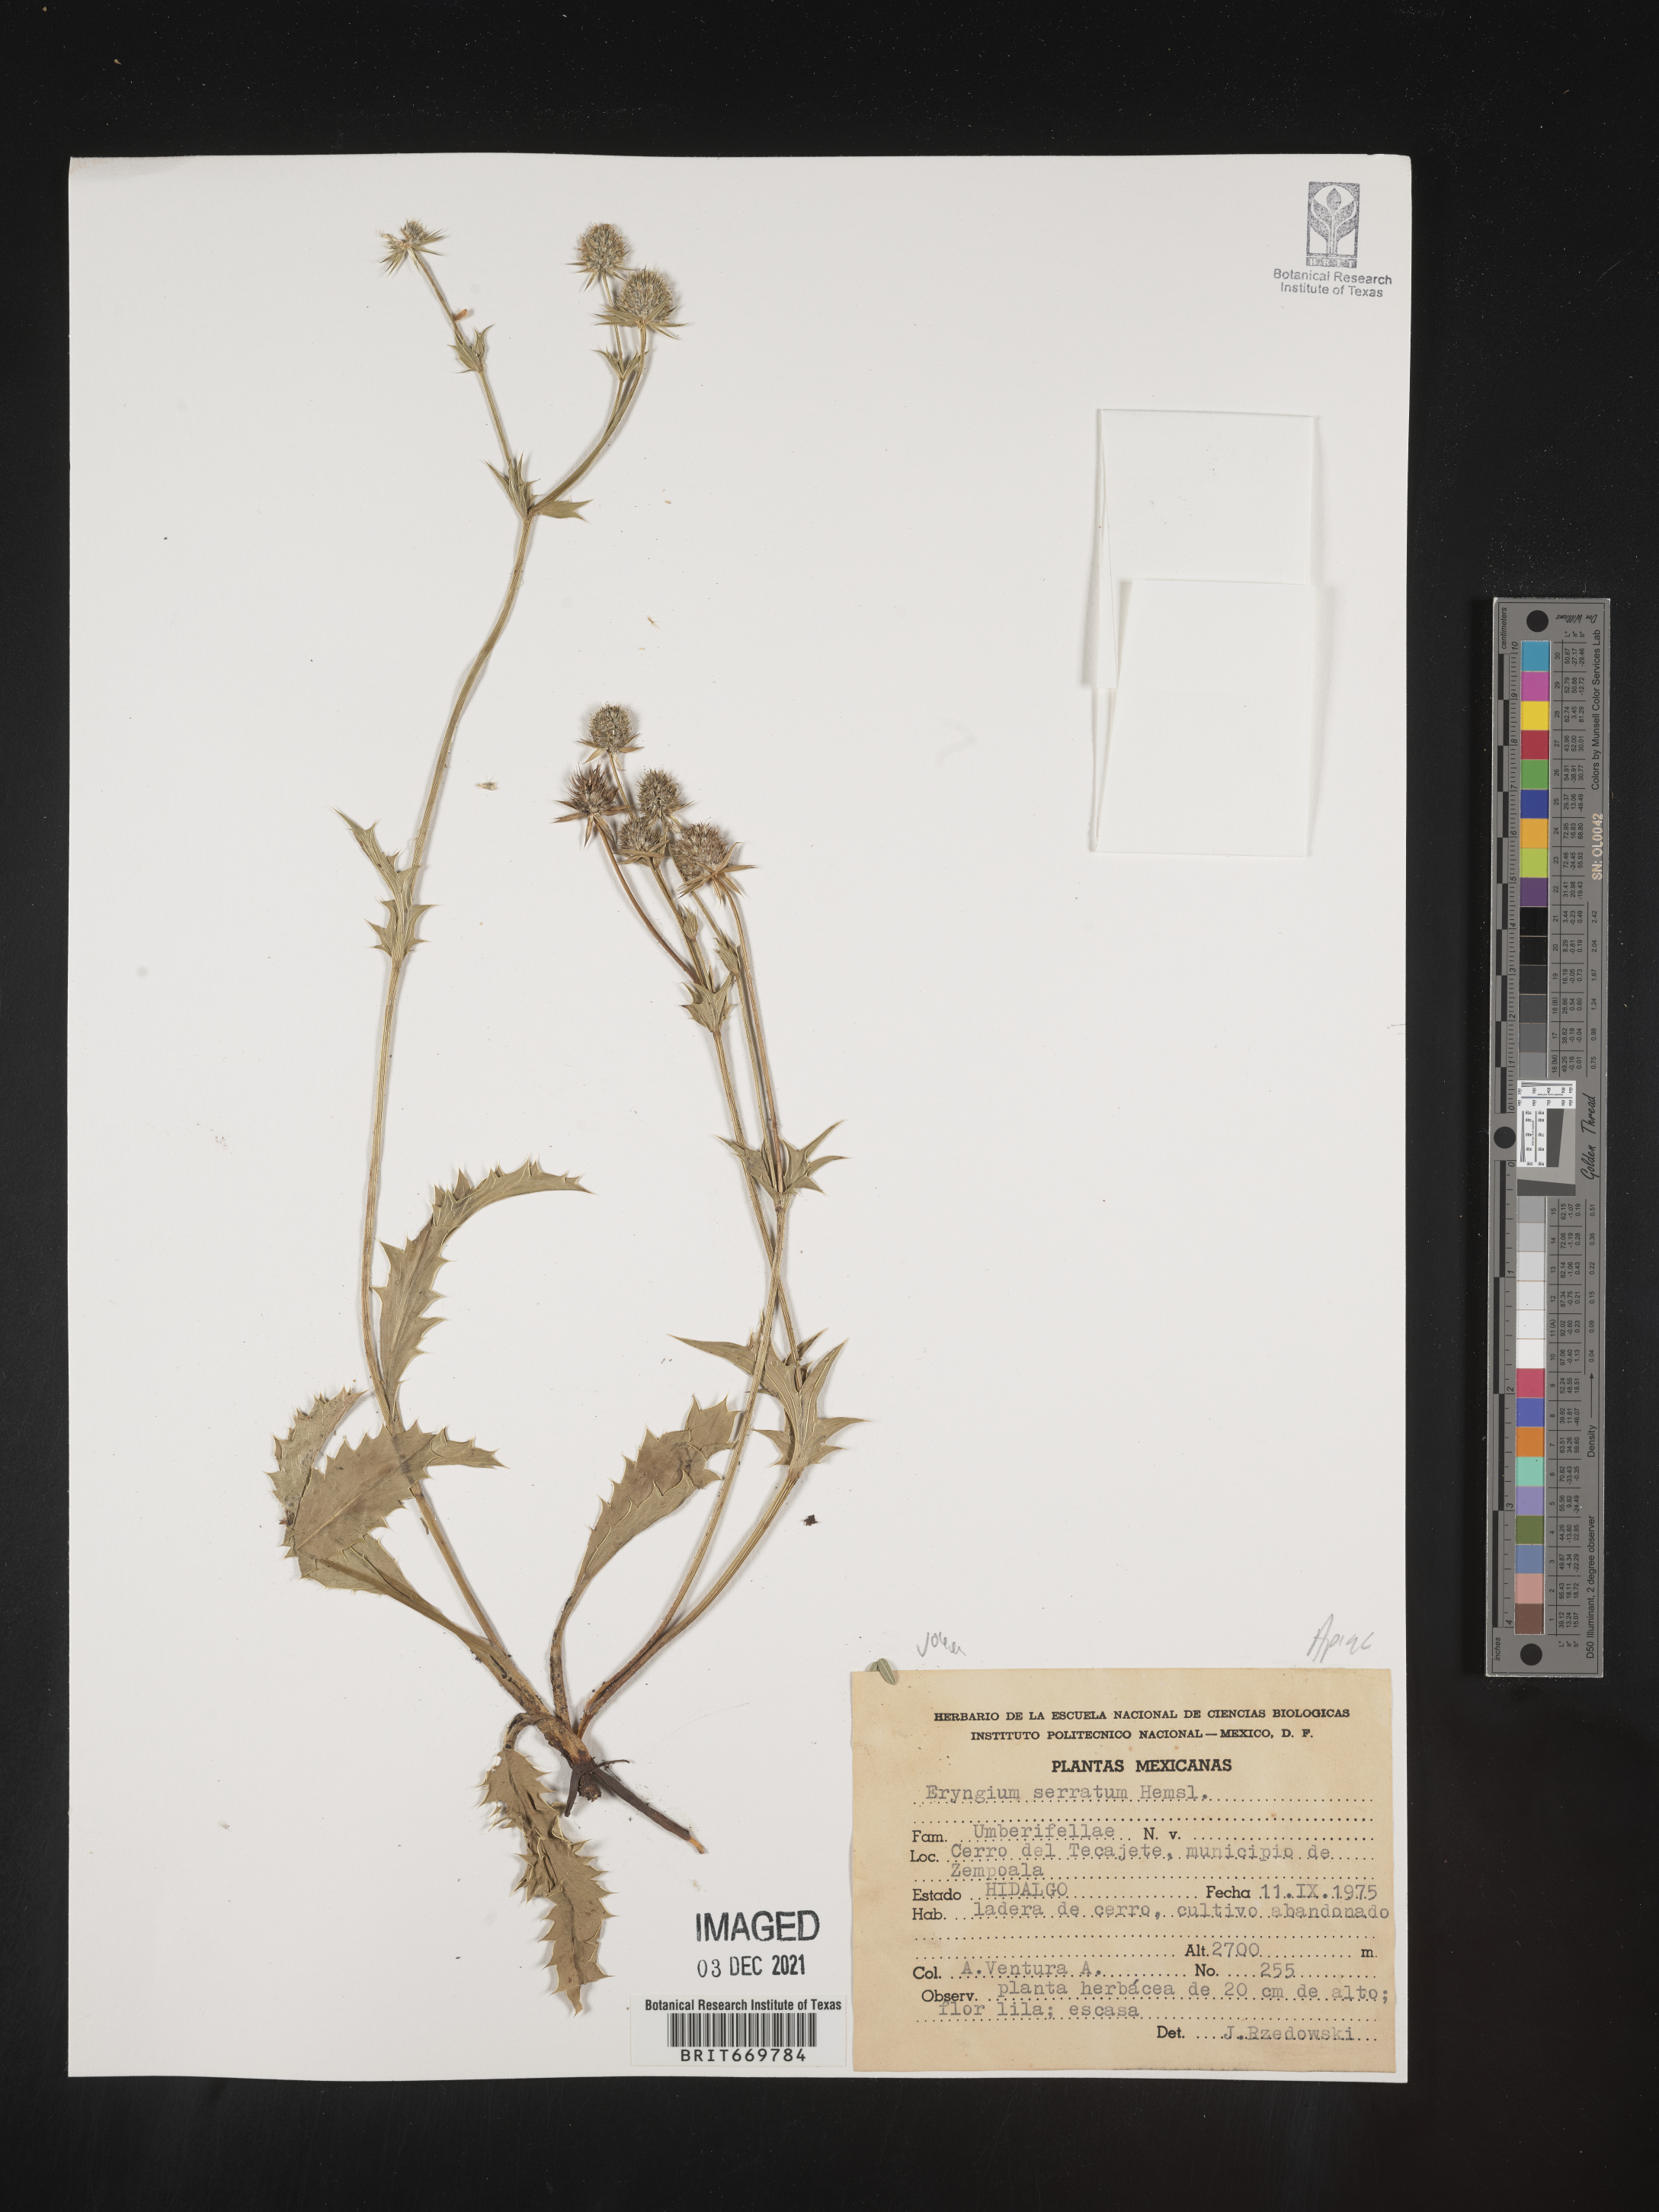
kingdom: Plantae
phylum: Tracheophyta
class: Magnoliopsida
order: Apiales
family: Apiaceae
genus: Eryngium
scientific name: Eryngium
